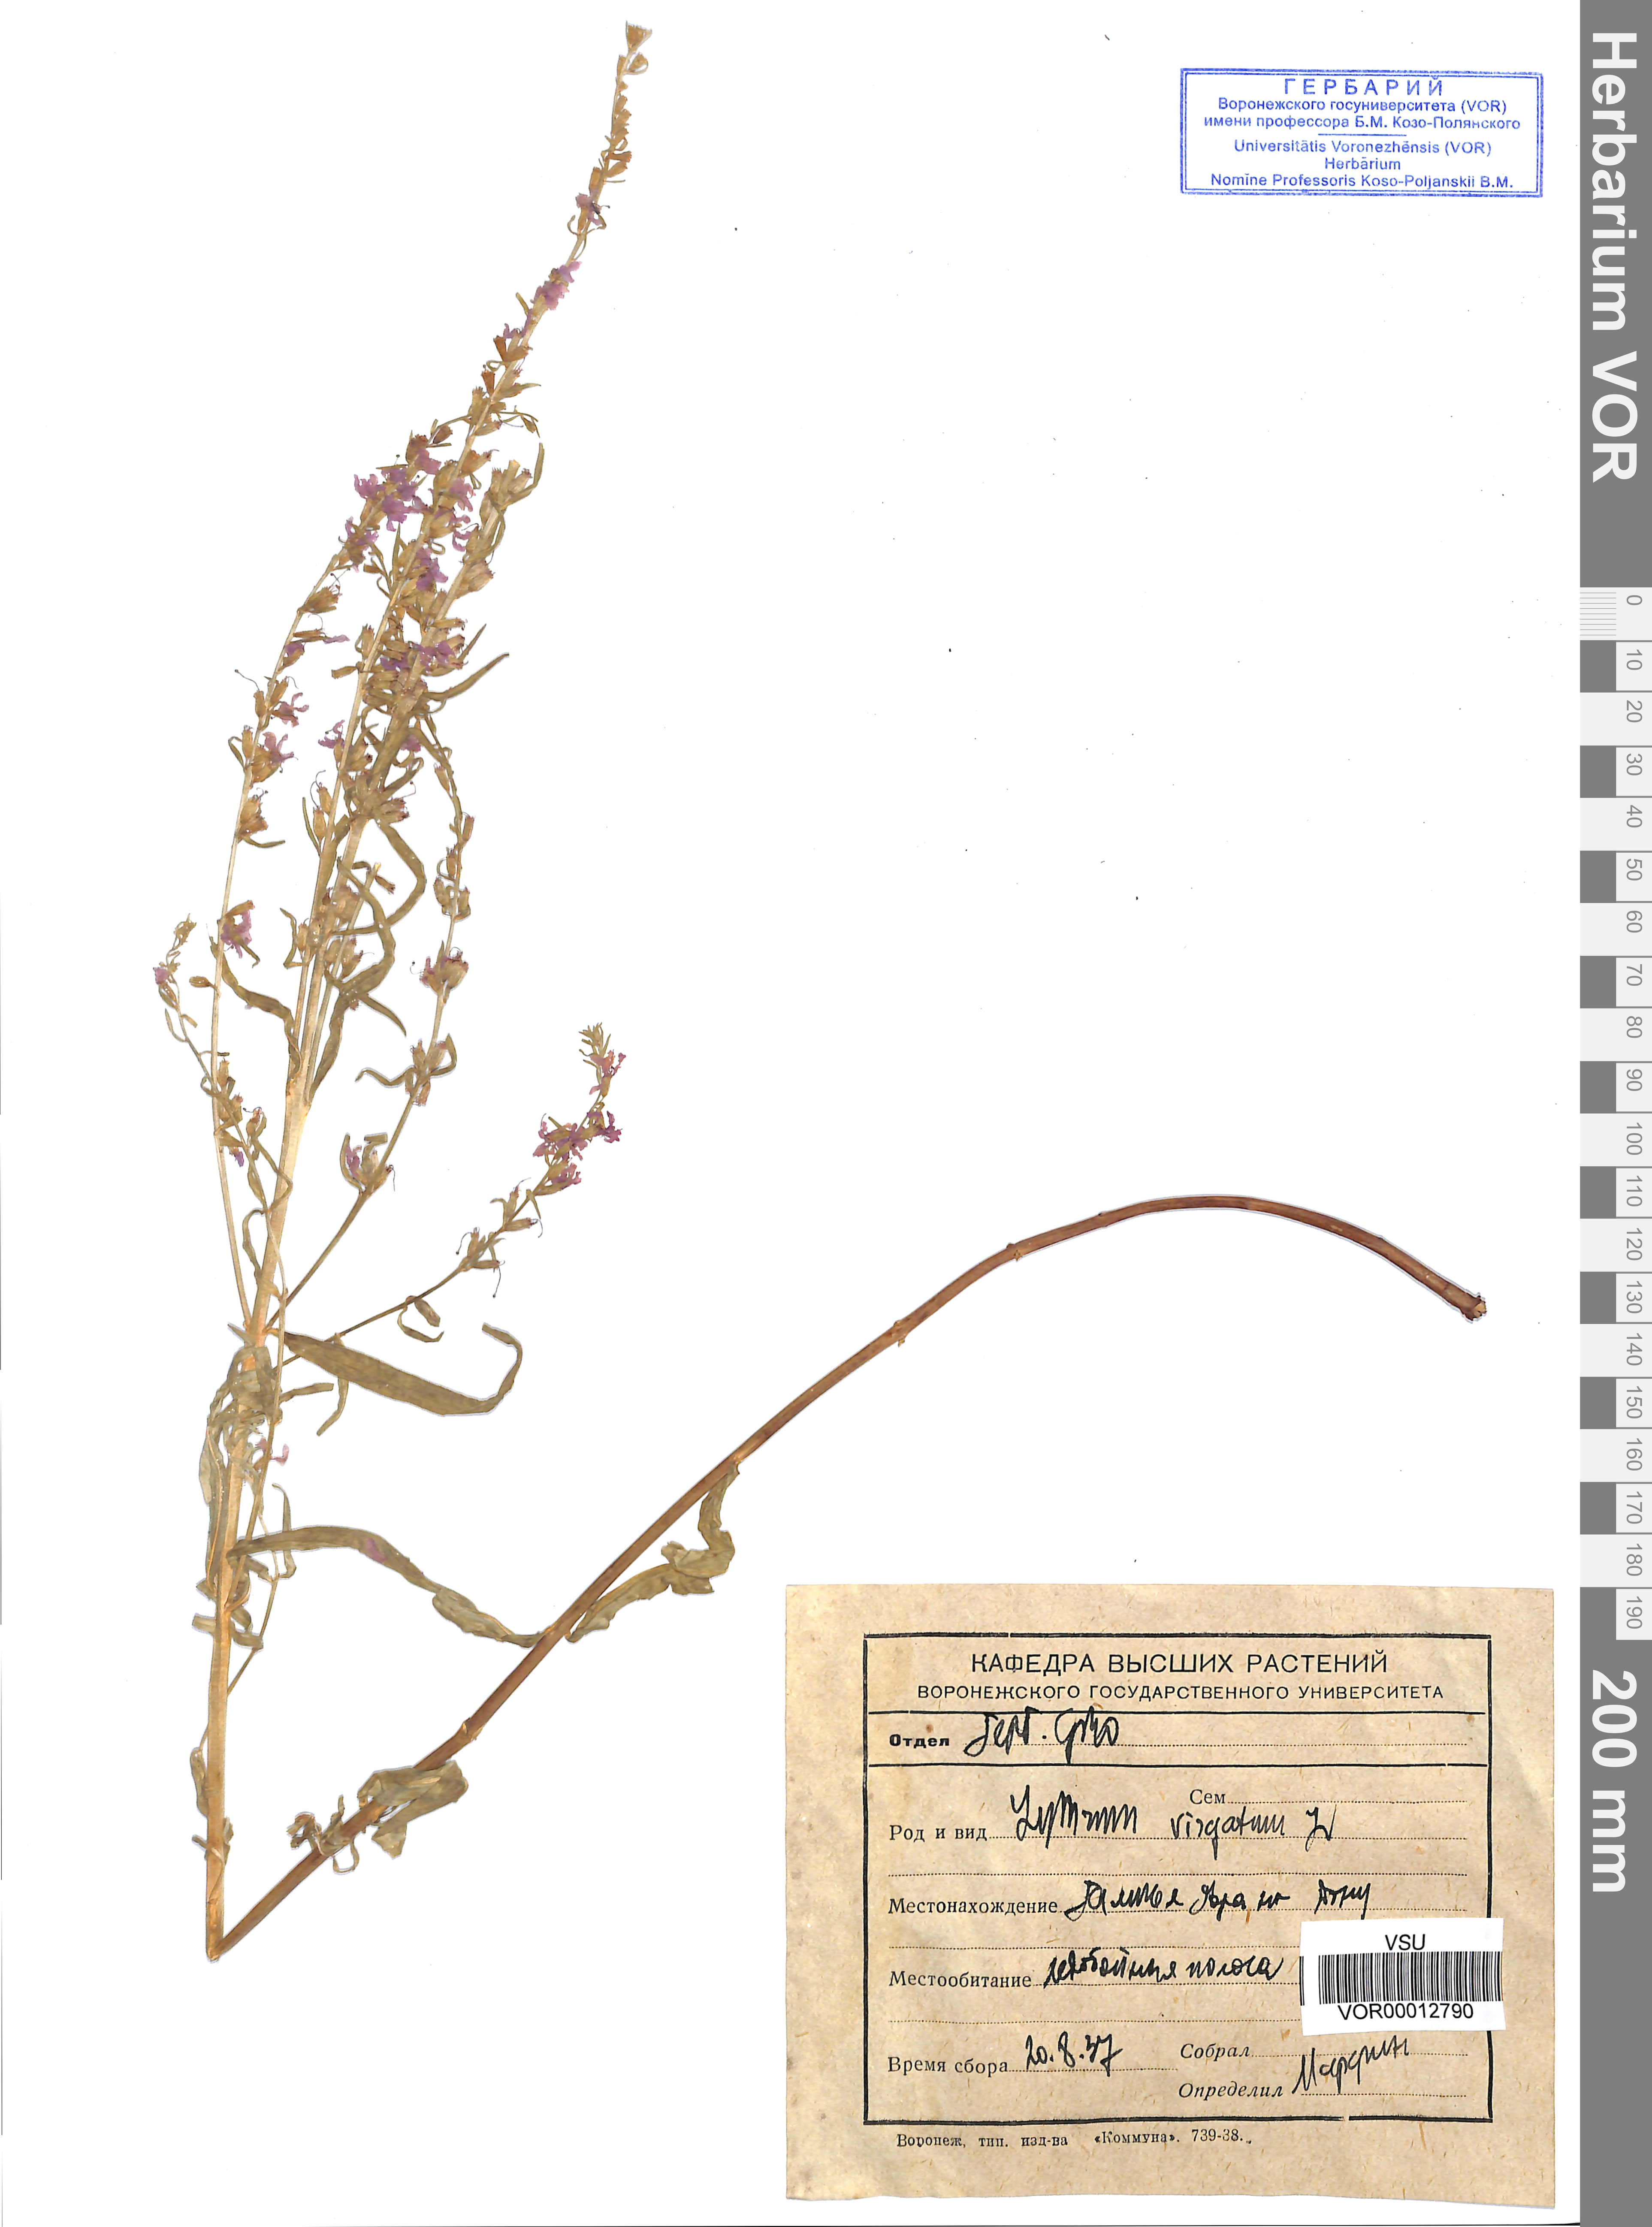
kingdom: Plantae
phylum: Tracheophyta
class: Magnoliopsida
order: Myrtales
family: Lythraceae
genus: Lythrum
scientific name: Lythrum virgatum
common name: European wand loosestrife
